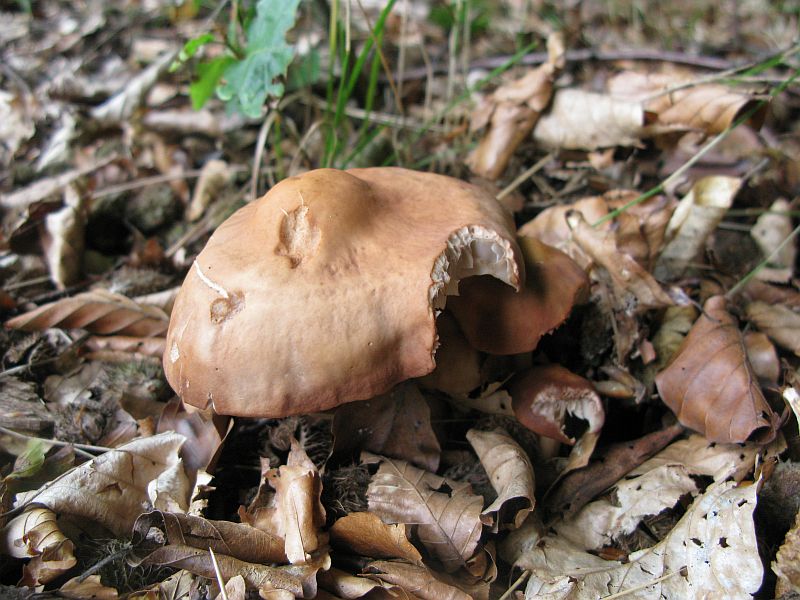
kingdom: Fungi
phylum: Basidiomycota
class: Agaricomycetes
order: Agaricales
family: Omphalotaceae
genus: Gymnopus
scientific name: Gymnopus fusipes
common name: tenstokket fladhat
